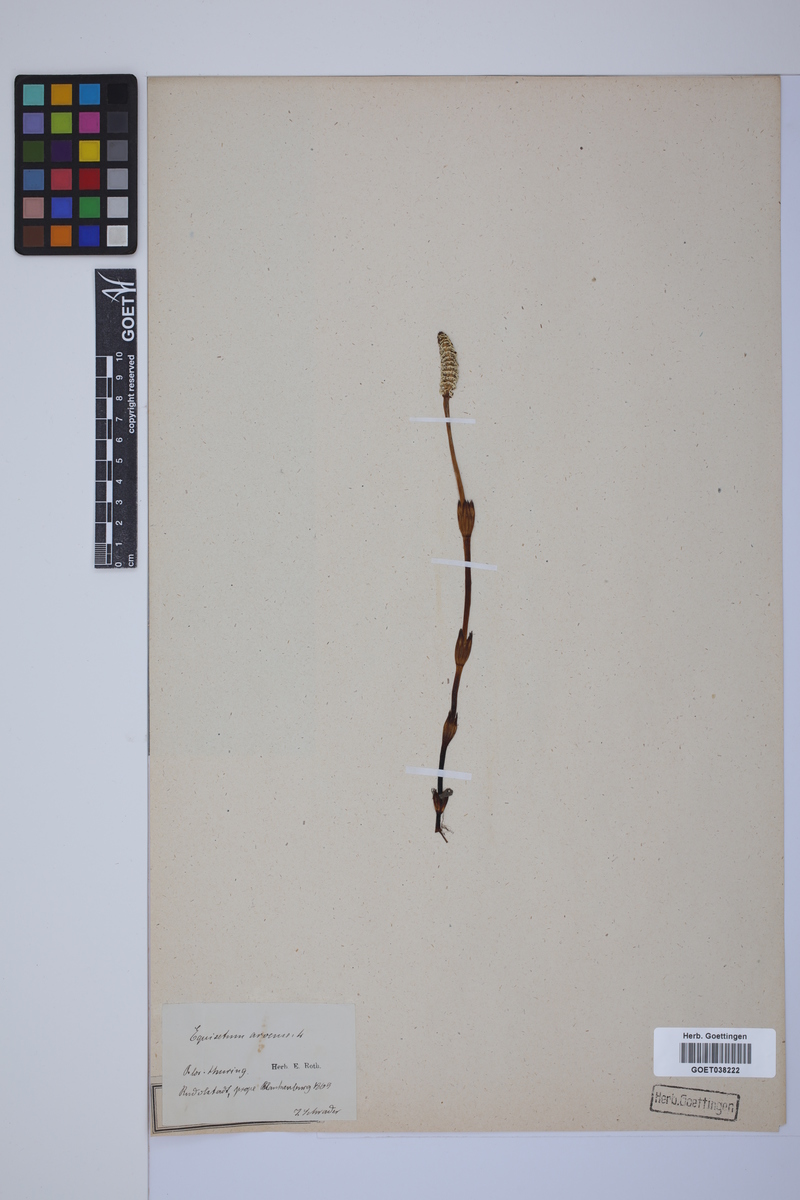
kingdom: Plantae
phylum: Tracheophyta
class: Polypodiopsida
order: Equisetales
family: Equisetaceae
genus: Equisetum
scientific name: Equisetum arvense
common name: Field horsetail
